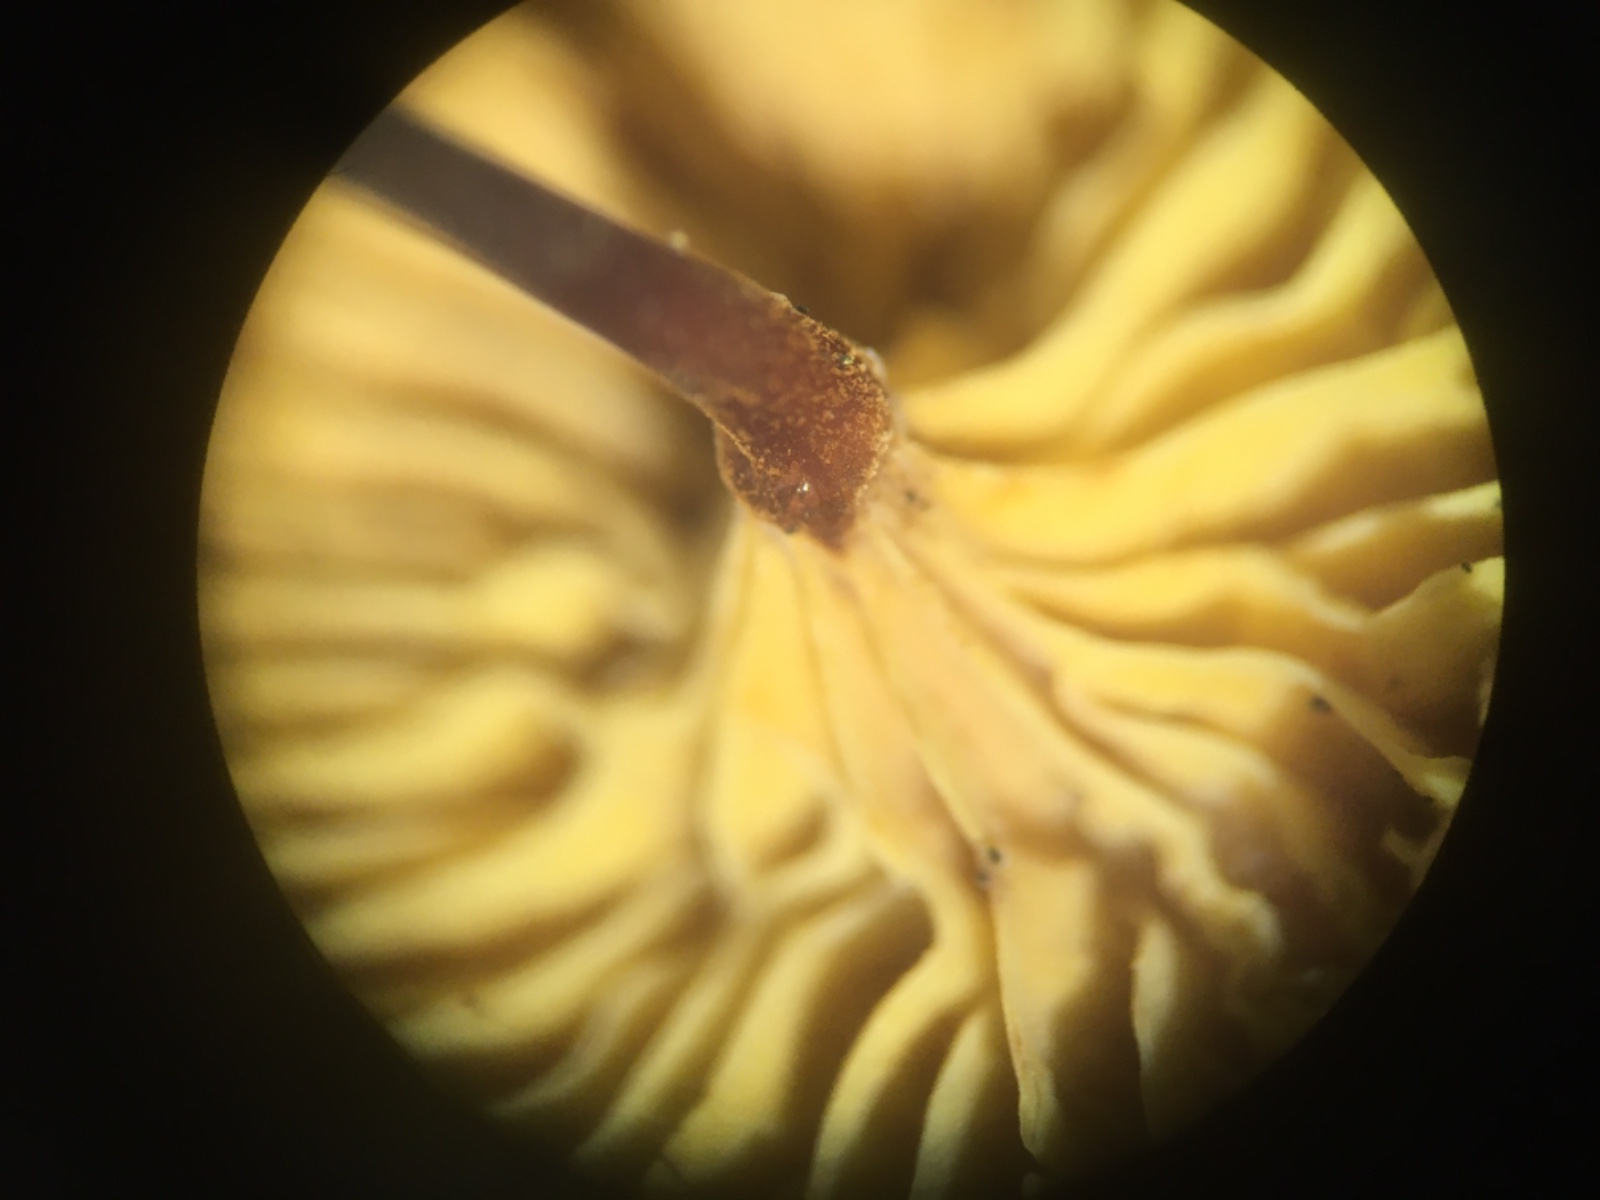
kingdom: Fungi
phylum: Basidiomycota
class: Agaricomycetes
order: Agaricales
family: Mycenaceae
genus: Xeromphalina
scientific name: Xeromphalina cornui
